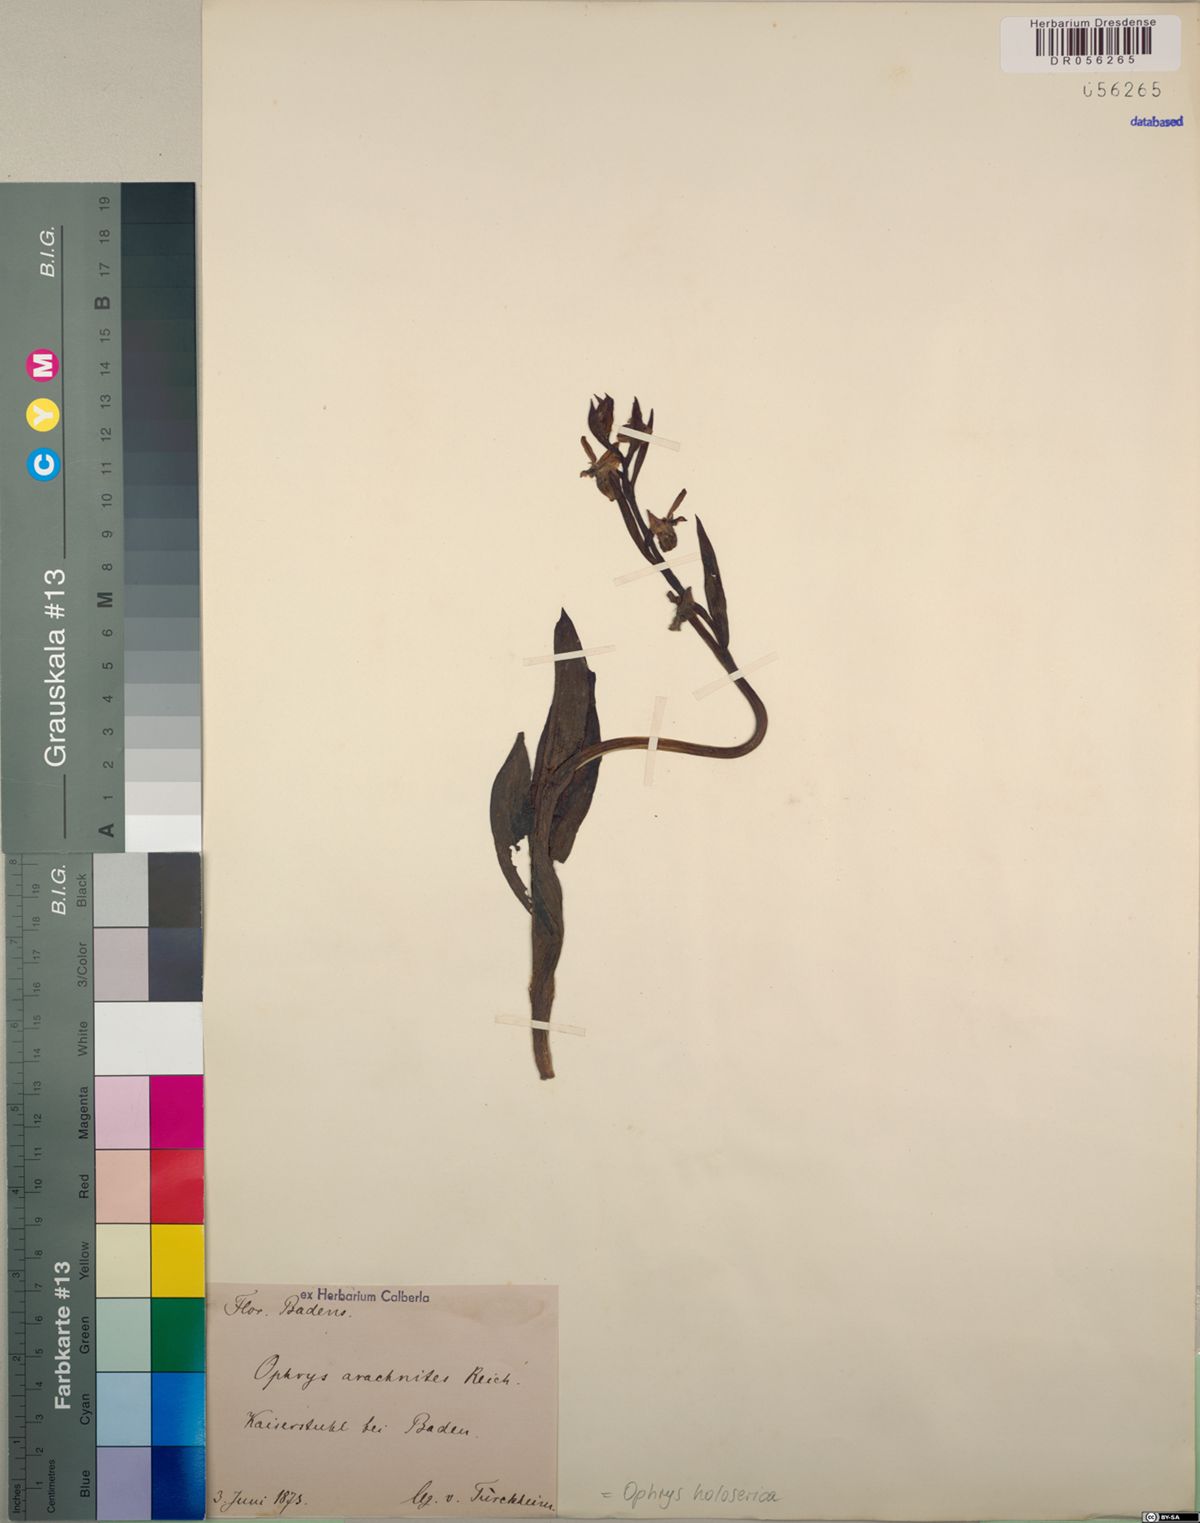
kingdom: Plantae
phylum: Tracheophyta
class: Liliopsida
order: Asparagales
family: Orchidaceae
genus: Ophrys
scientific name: Ophrys holosericea
